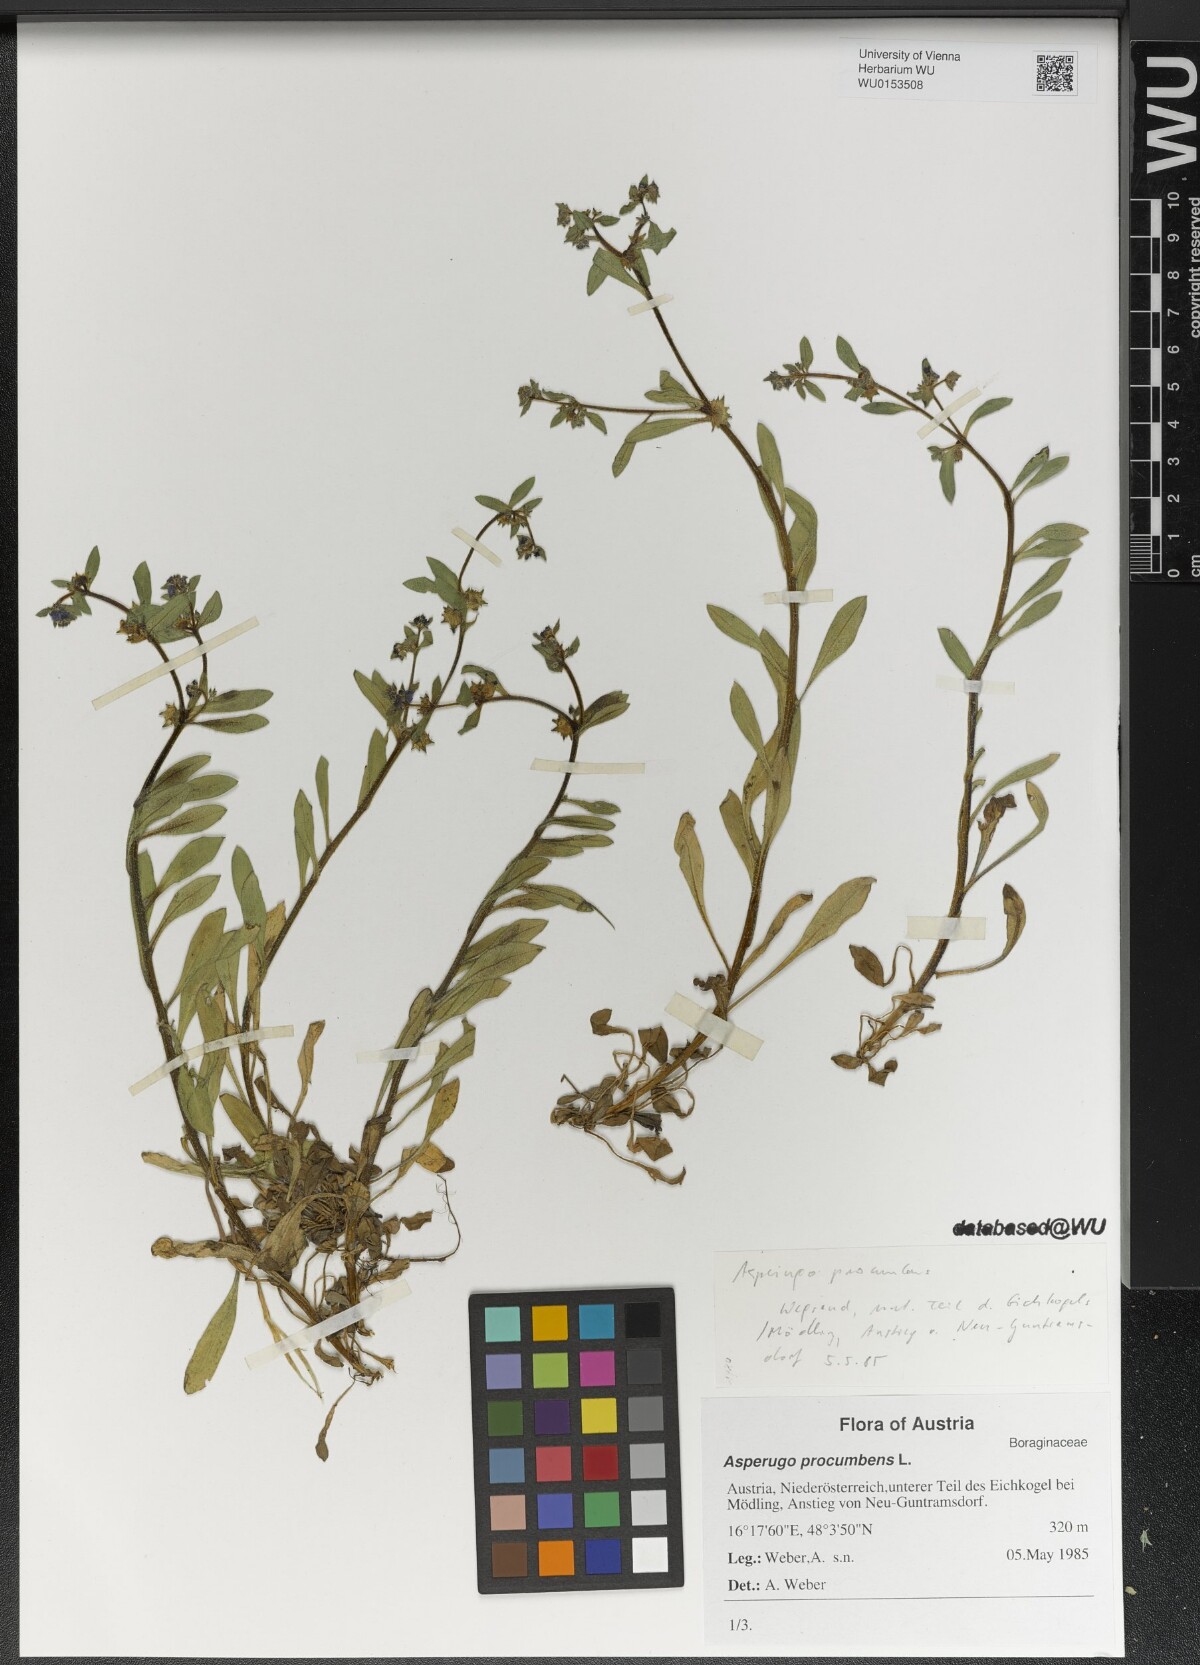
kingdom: Plantae
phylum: Tracheophyta
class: Magnoliopsida
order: Boraginales
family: Boraginaceae
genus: Asperugo
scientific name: Asperugo procumbens
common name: Madwort
